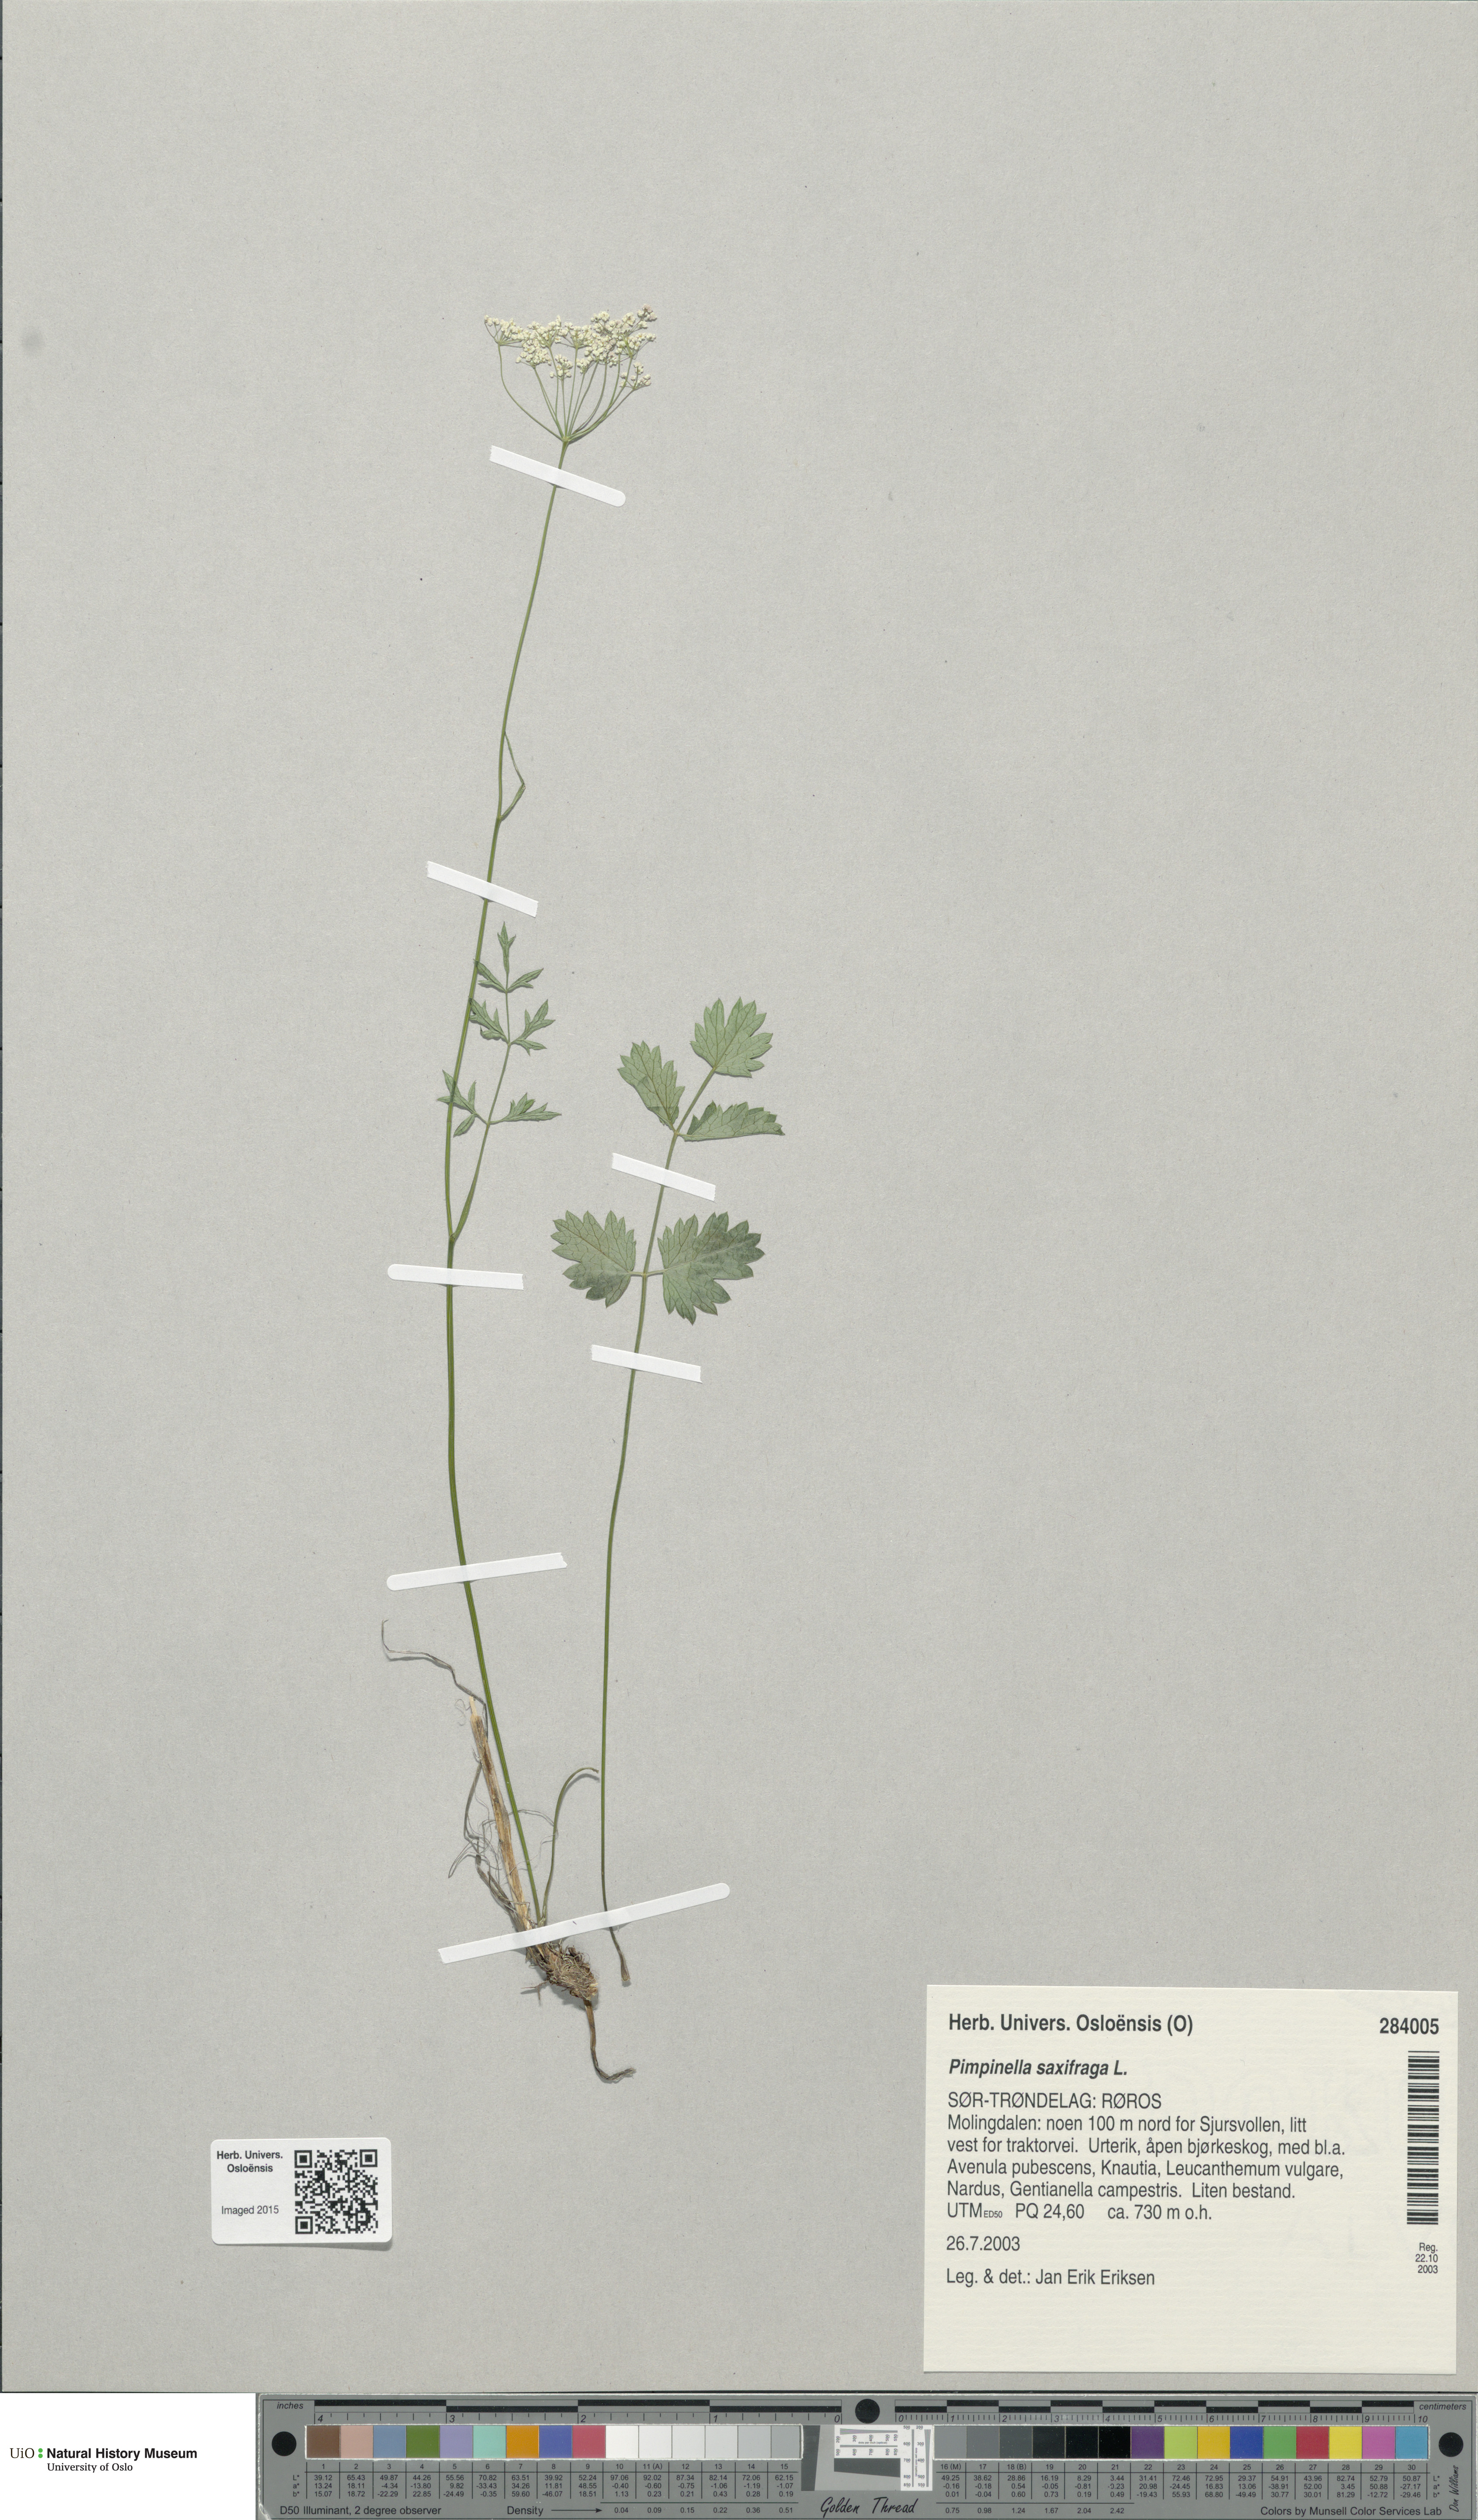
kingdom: Plantae
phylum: Tracheophyta
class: Magnoliopsida
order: Apiales
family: Apiaceae
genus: Pimpinella
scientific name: Pimpinella saxifraga
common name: Burnet-saxifrage
